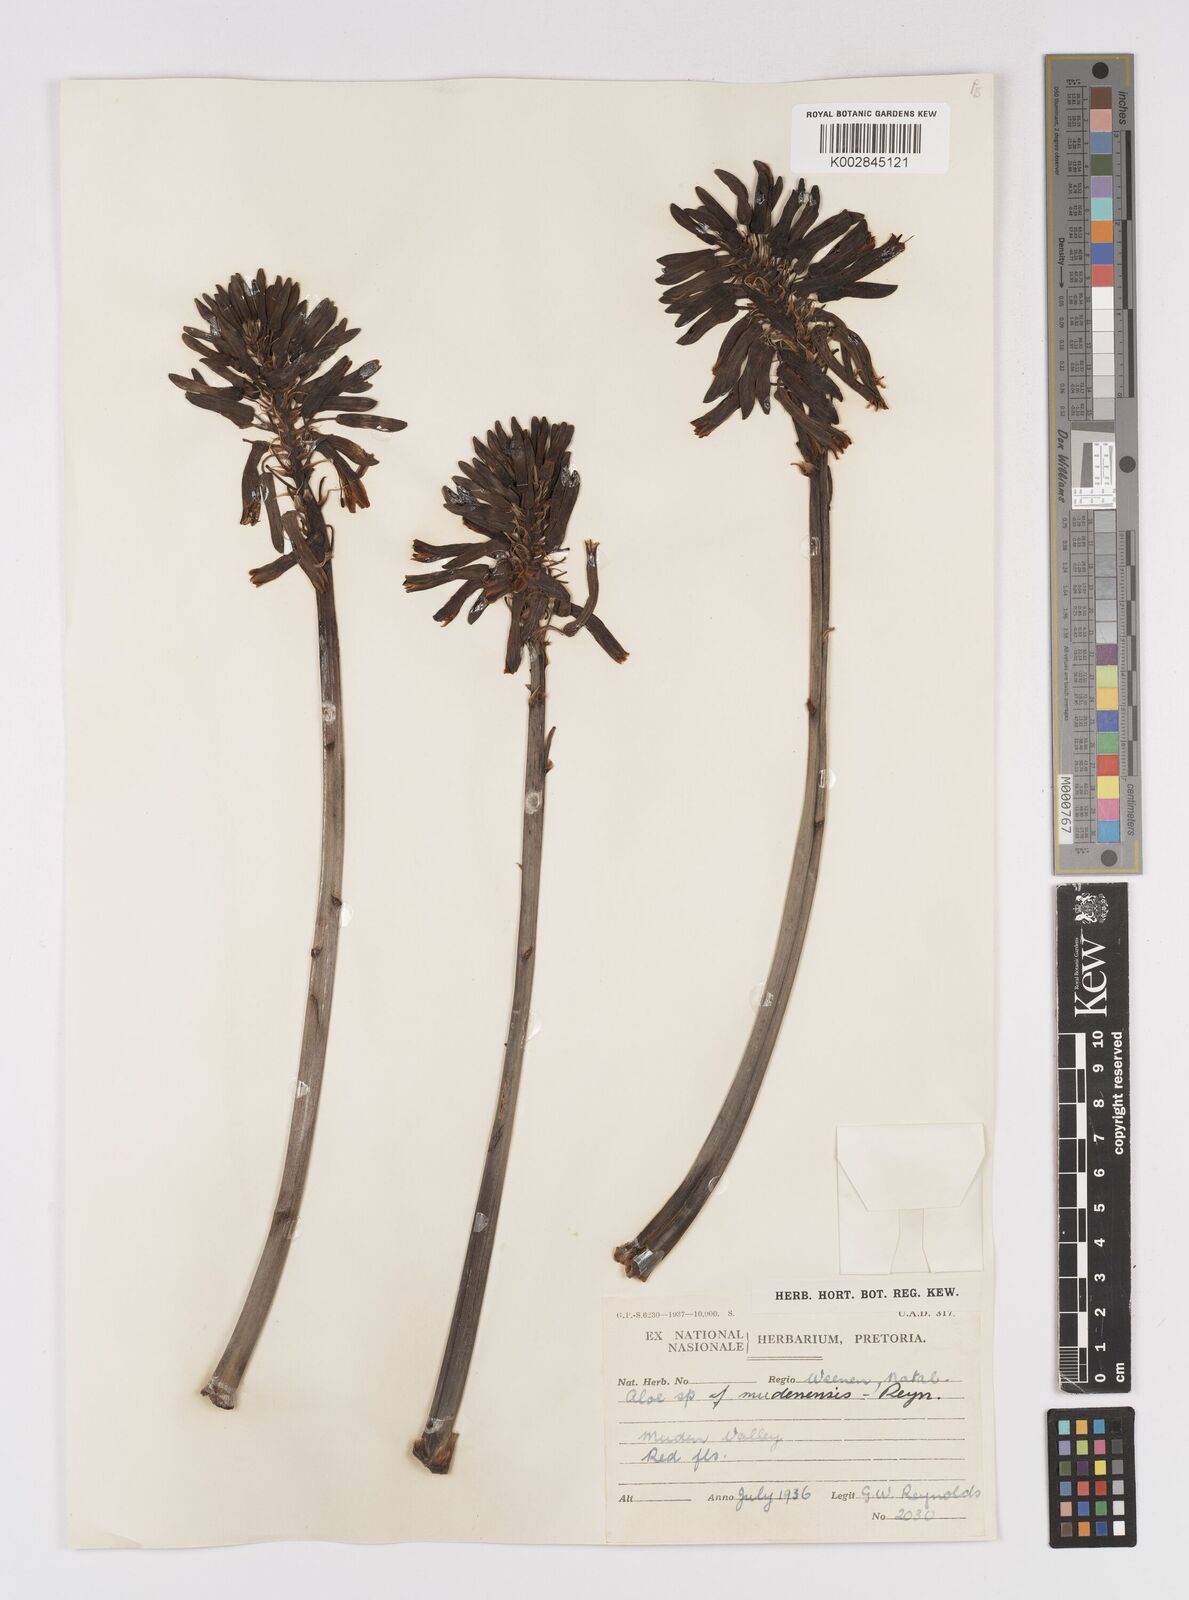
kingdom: Plantae
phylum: Tracheophyta
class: Liliopsida
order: Asparagales
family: Asphodelaceae
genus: Aloe
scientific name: Aloe mudenensis
